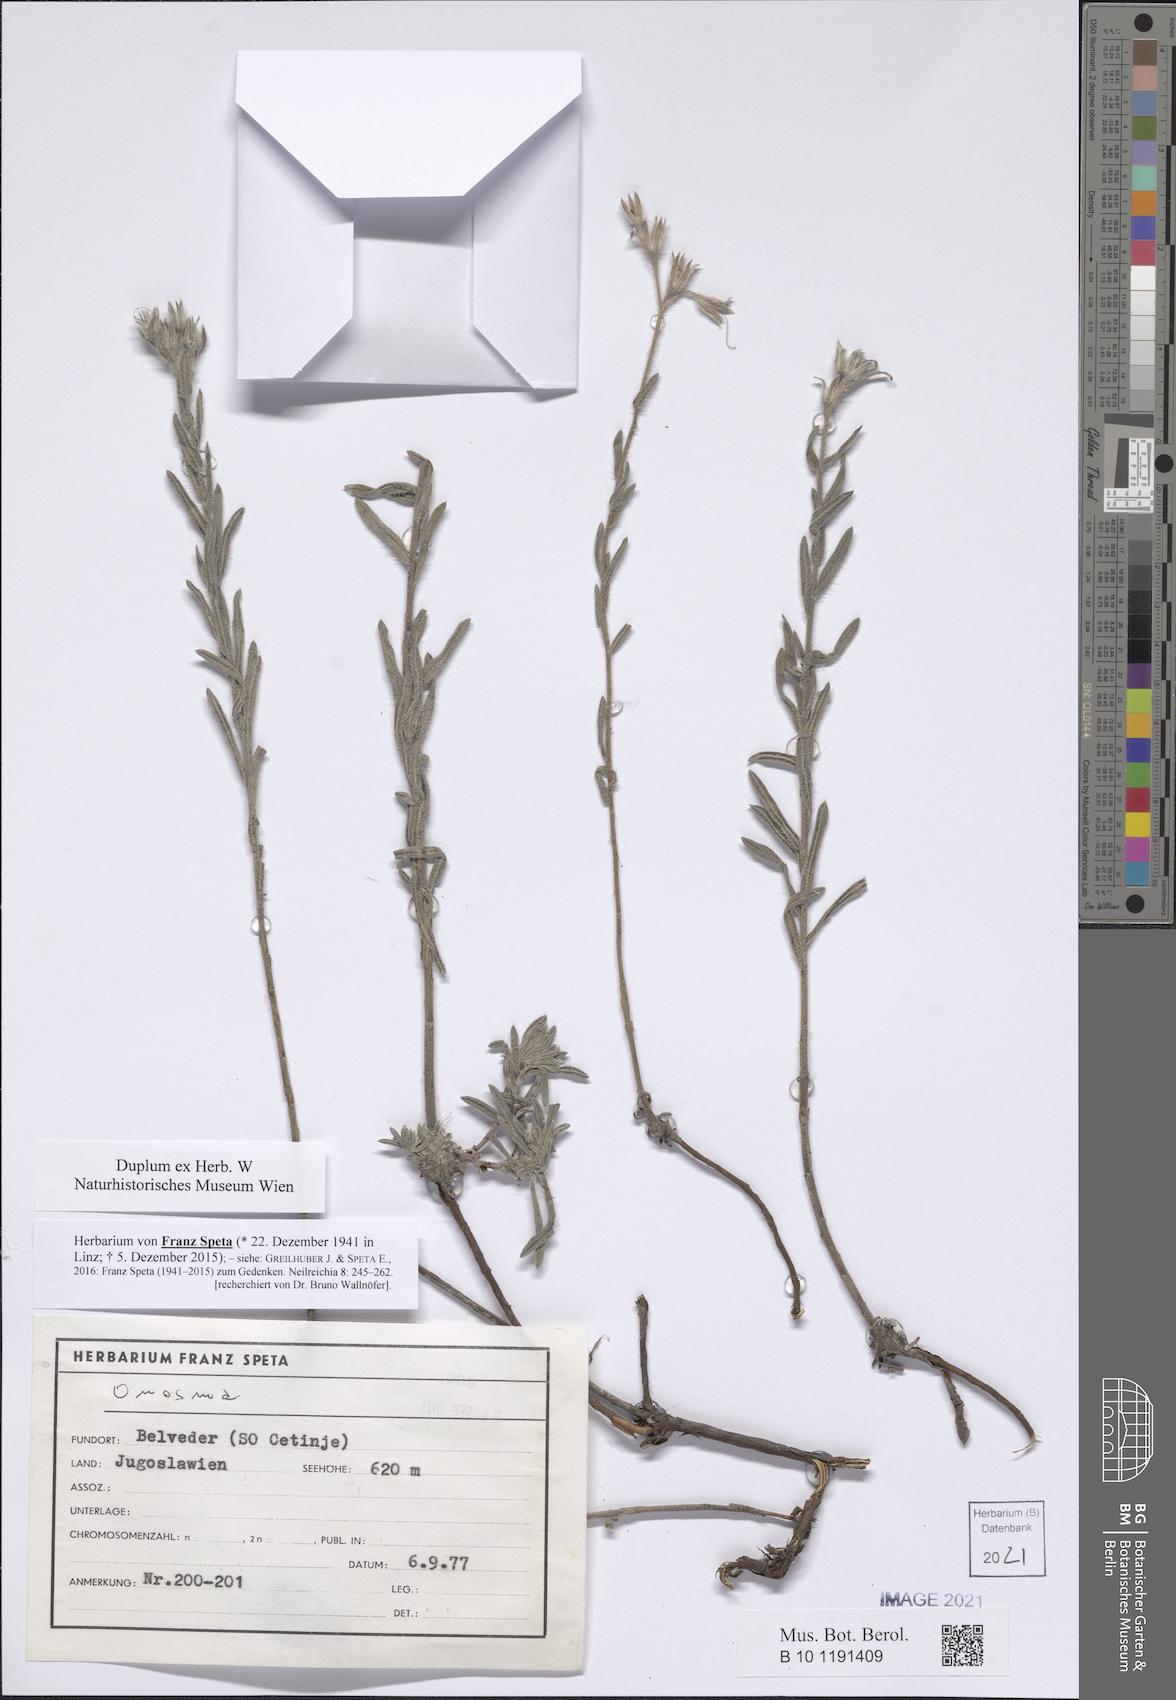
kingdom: Plantae
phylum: Tracheophyta
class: Magnoliopsida
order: Boraginales
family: Boraginaceae
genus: Onosma
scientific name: Onosma
